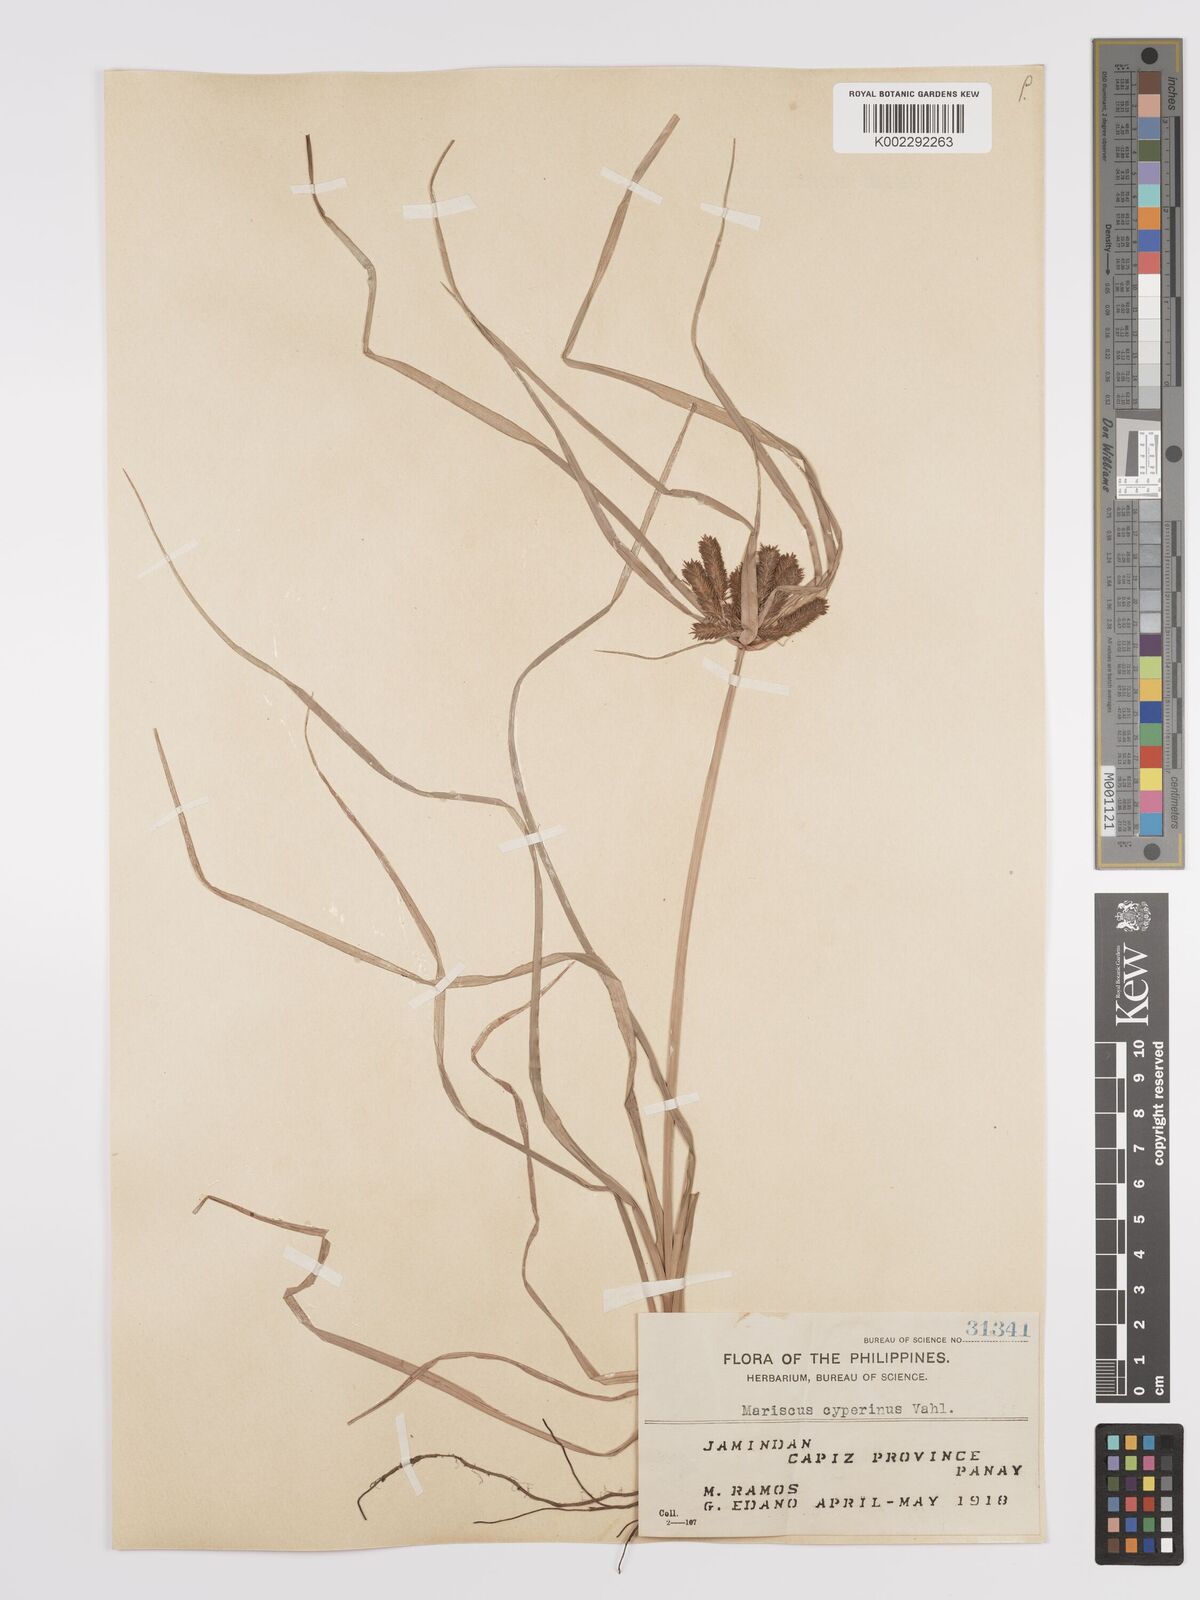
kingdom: Plantae
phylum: Tracheophyta
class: Liliopsida
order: Poales
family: Cyperaceae
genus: Cyperus
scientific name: Cyperus cyperinus
